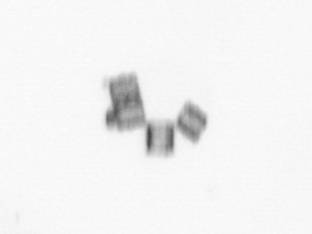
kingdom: Chromista
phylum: Ochrophyta
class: Bacillariophyceae
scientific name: Bacillariophyceae
